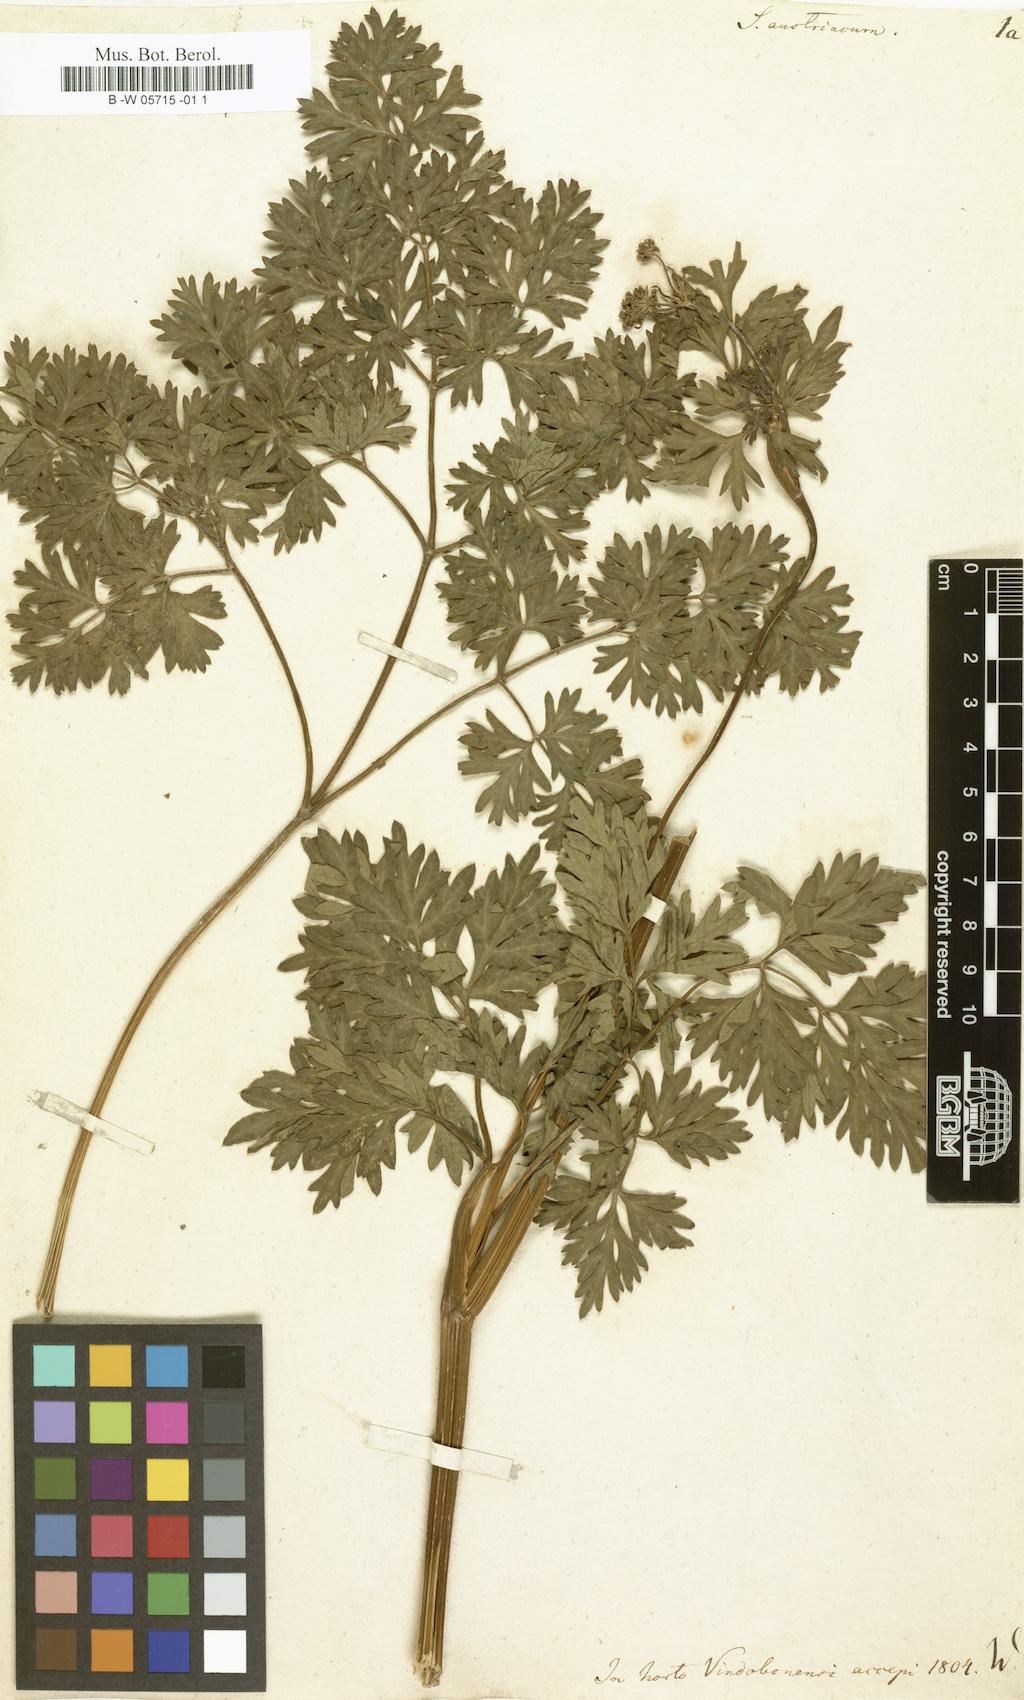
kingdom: Plantae
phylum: Tracheophyta
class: Magnoliopsida
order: Apiales
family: Apiaceae
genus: Selinum
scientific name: Selinum austriacum
